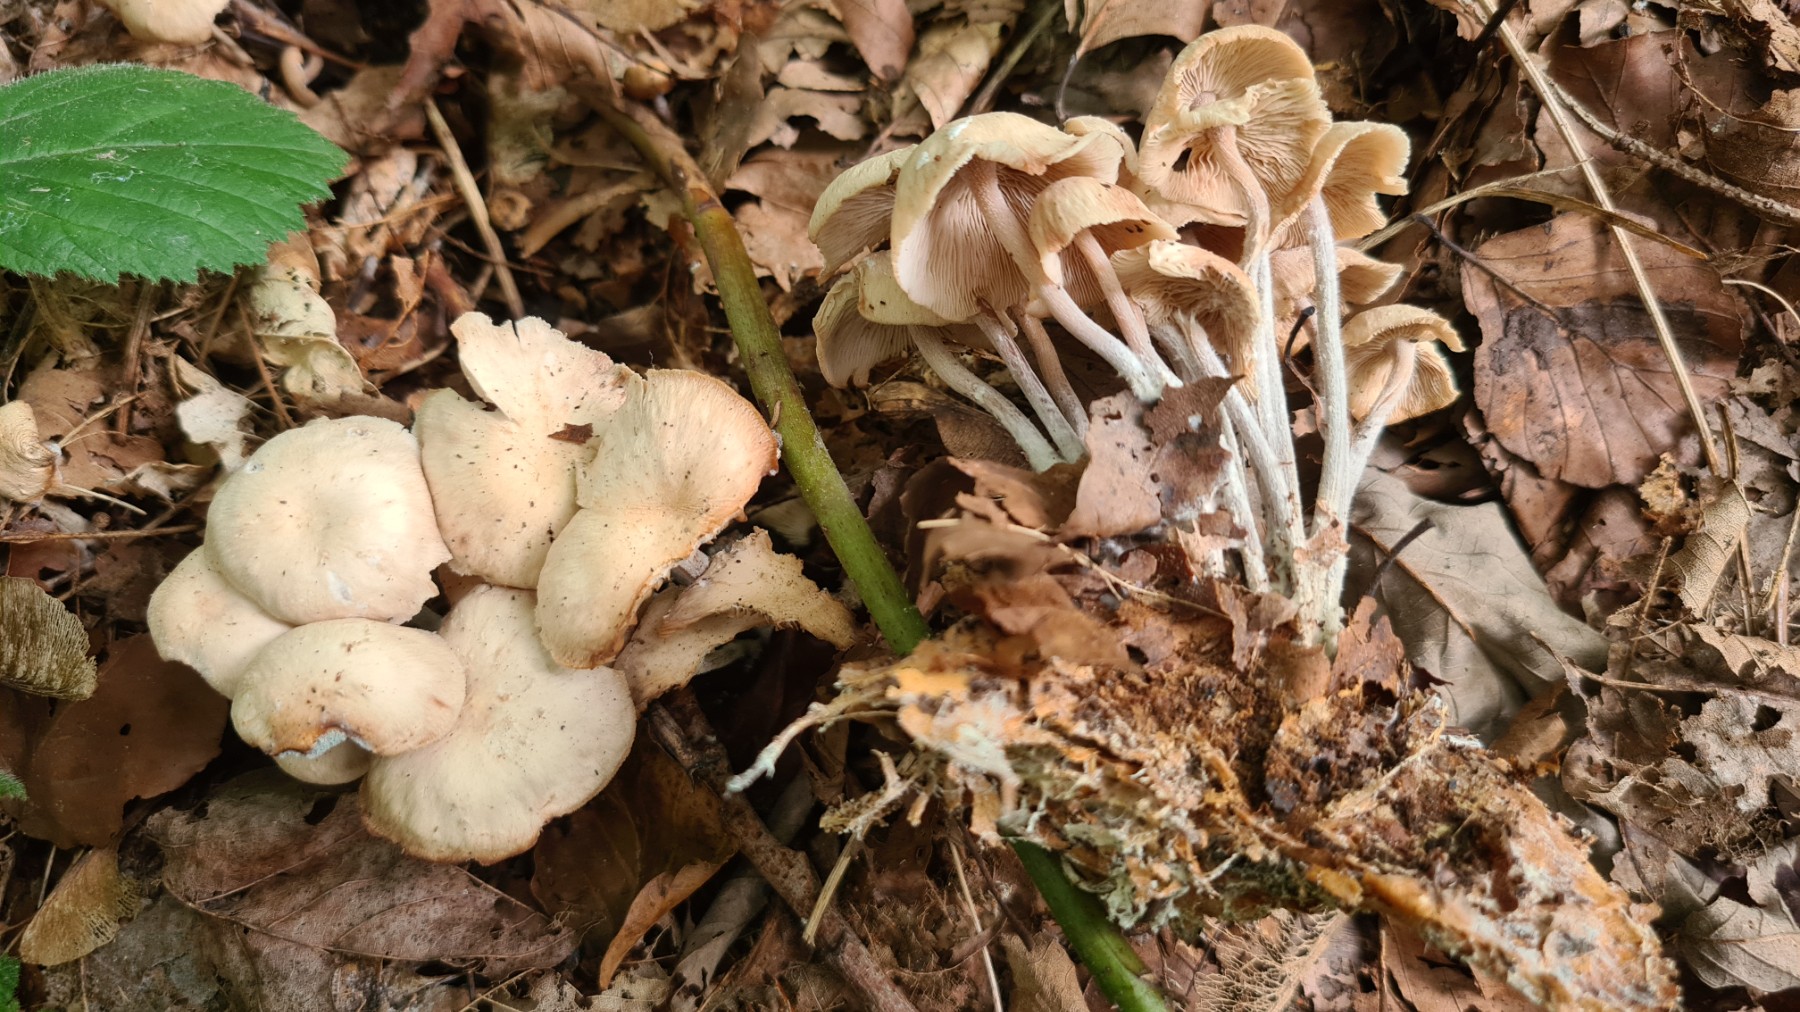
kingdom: Fungi
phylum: Basidiomycota
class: Agaricomycetes
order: Agaricales
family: Omphalotaceae
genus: Collybiopsis
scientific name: Collybiopsis confluens
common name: knippe-fladhat
